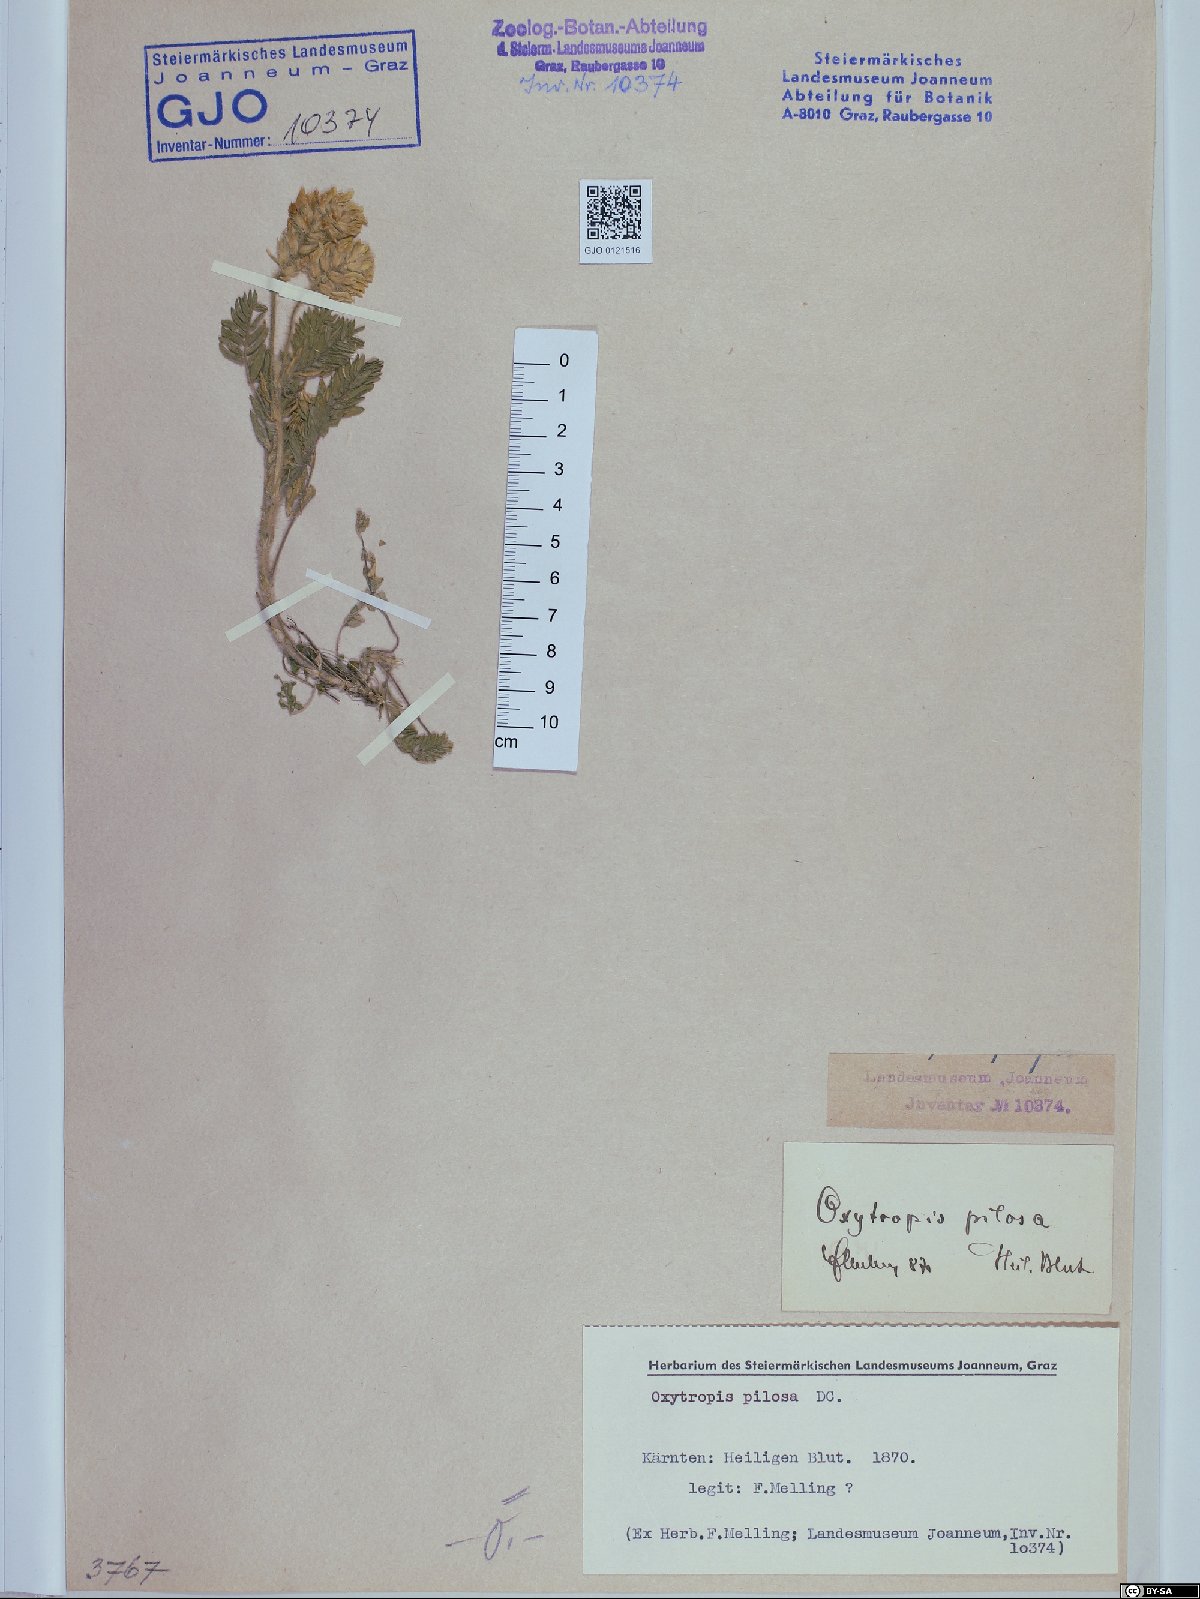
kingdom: Plantae
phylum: Tracheophyta
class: Magnoliopsida
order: Fabales
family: Fabaceae
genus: Oxytropis
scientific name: Oxytropis pilosa
